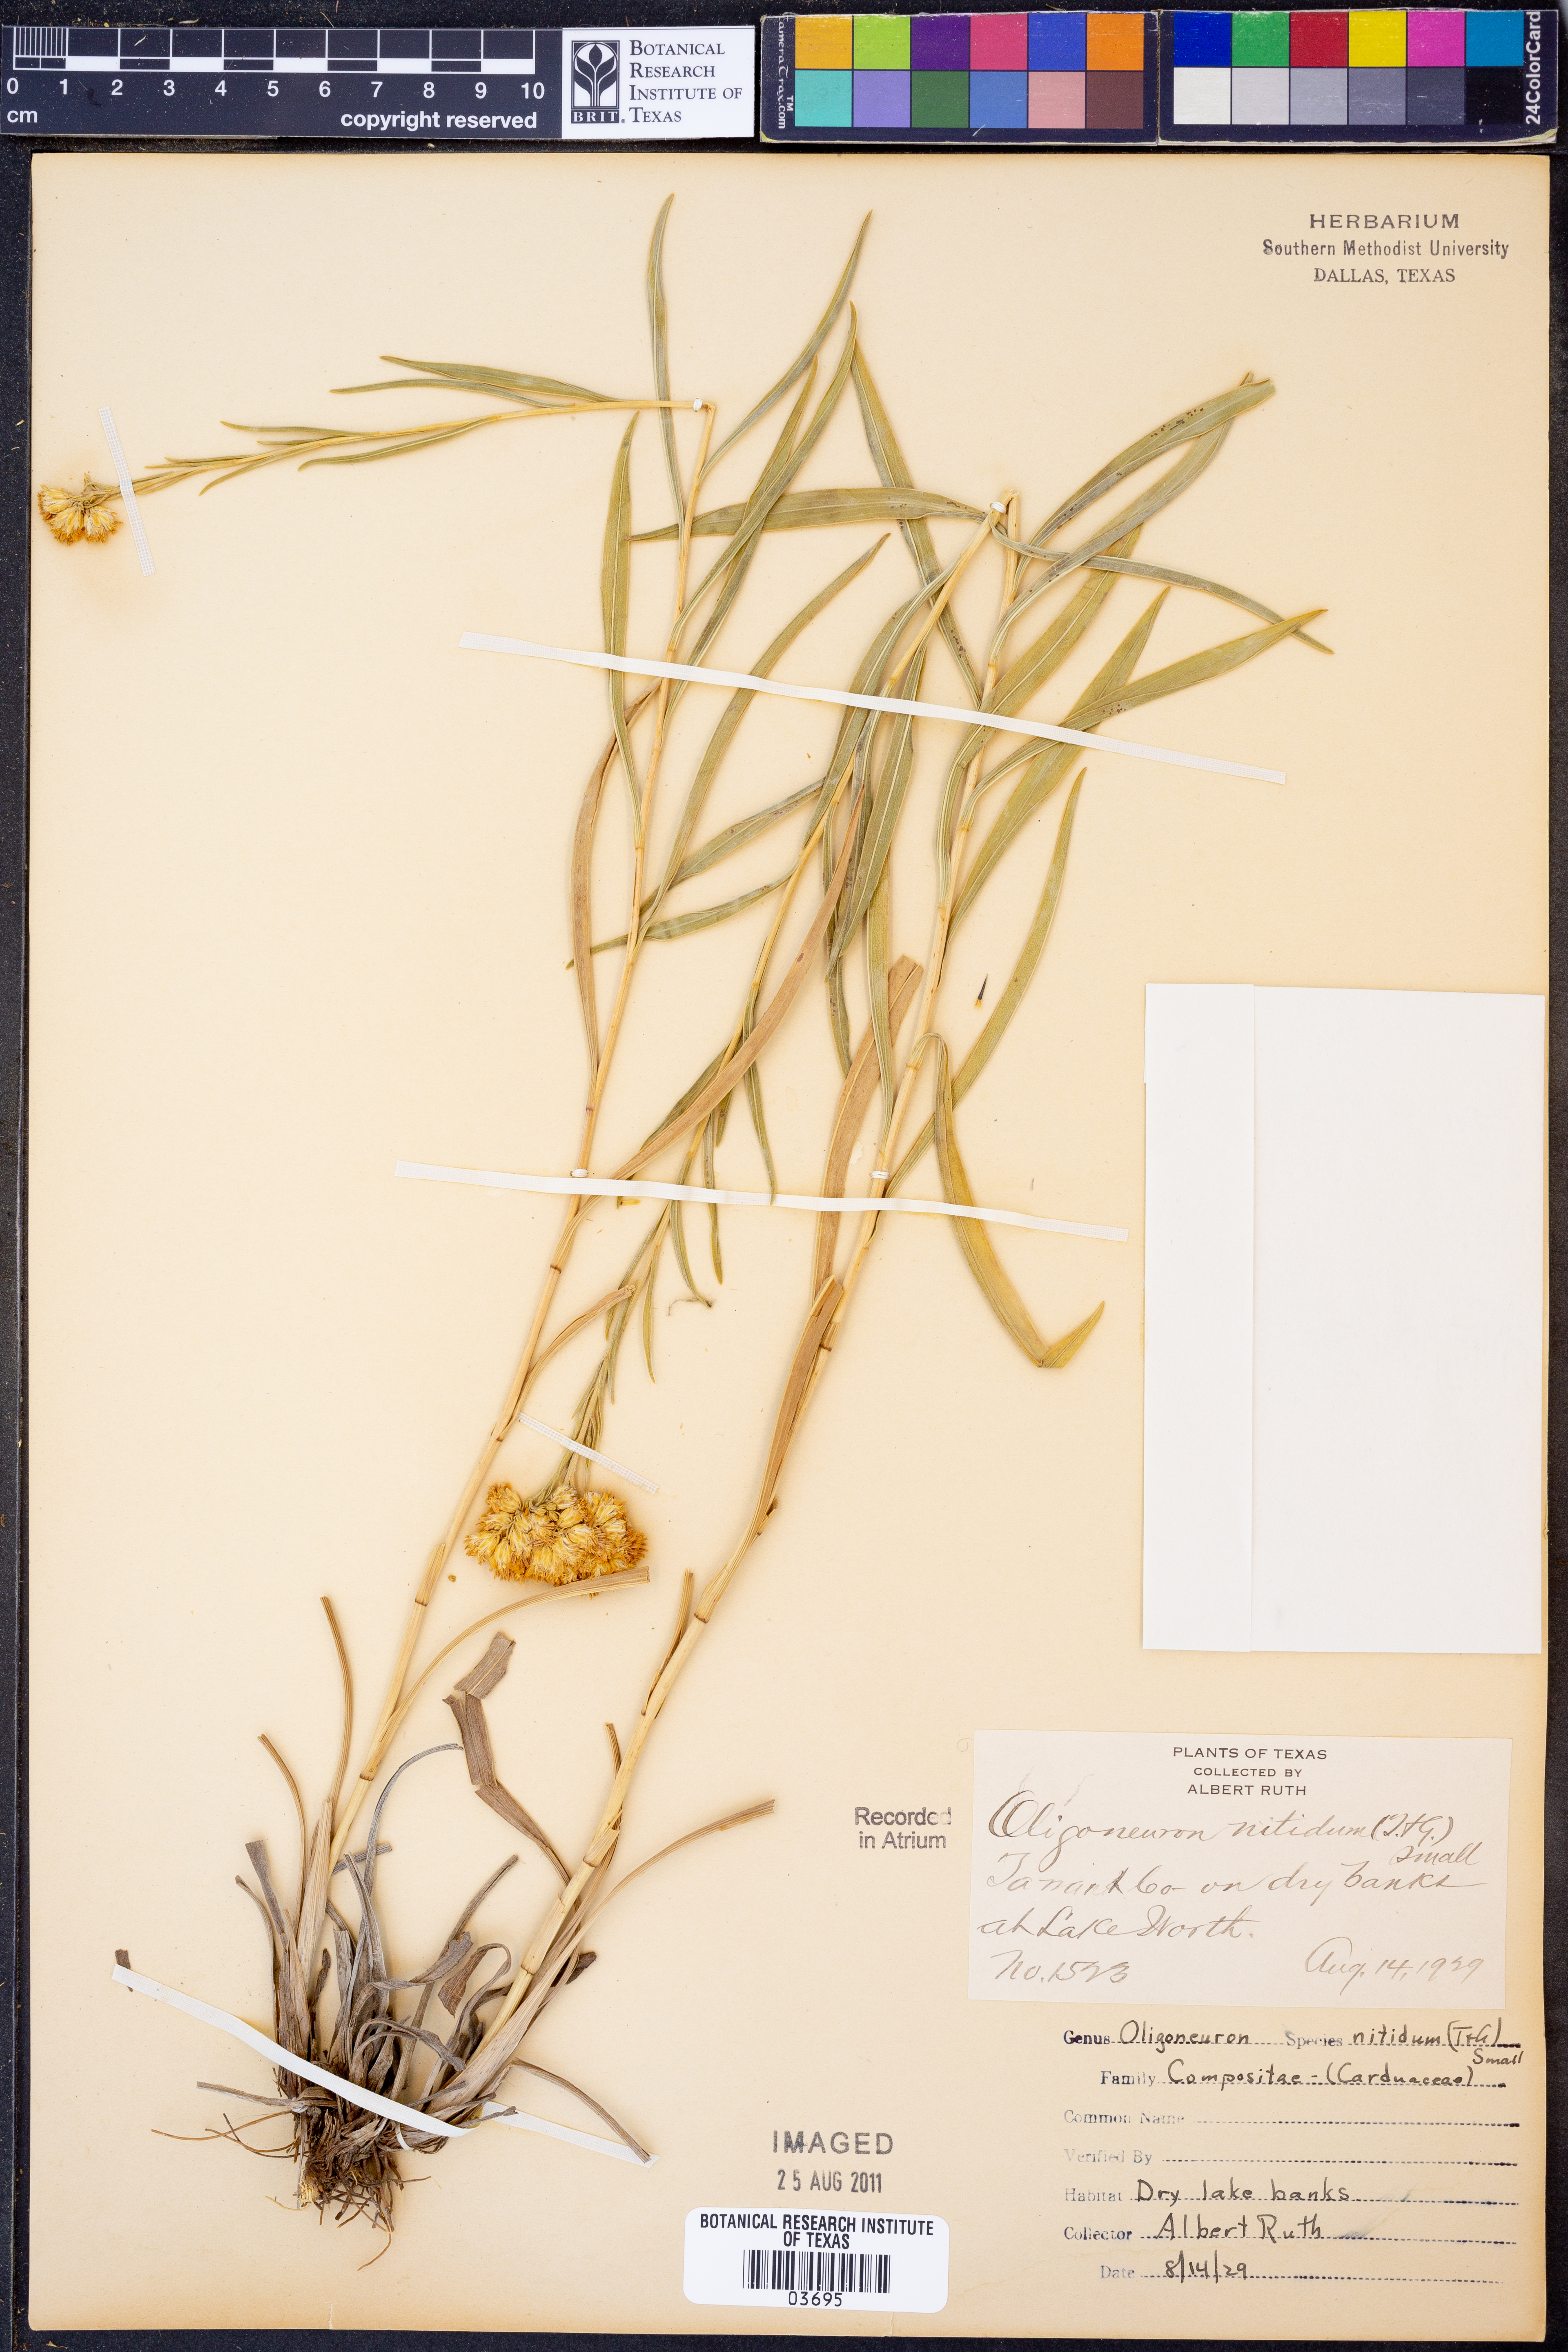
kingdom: Plantae
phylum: Tracheophyta
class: Magnoliopsida
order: Asterales
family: Asteraceae
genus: Solidago
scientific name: Solidago nitida
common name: Shiny goldenrod
